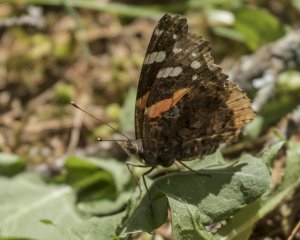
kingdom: Animalia
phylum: Arthropoda
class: Insecta
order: Lepidoptera
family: Nymphalidae
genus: Vanessa
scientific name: Vanessa atalanta
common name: Red Admiral
